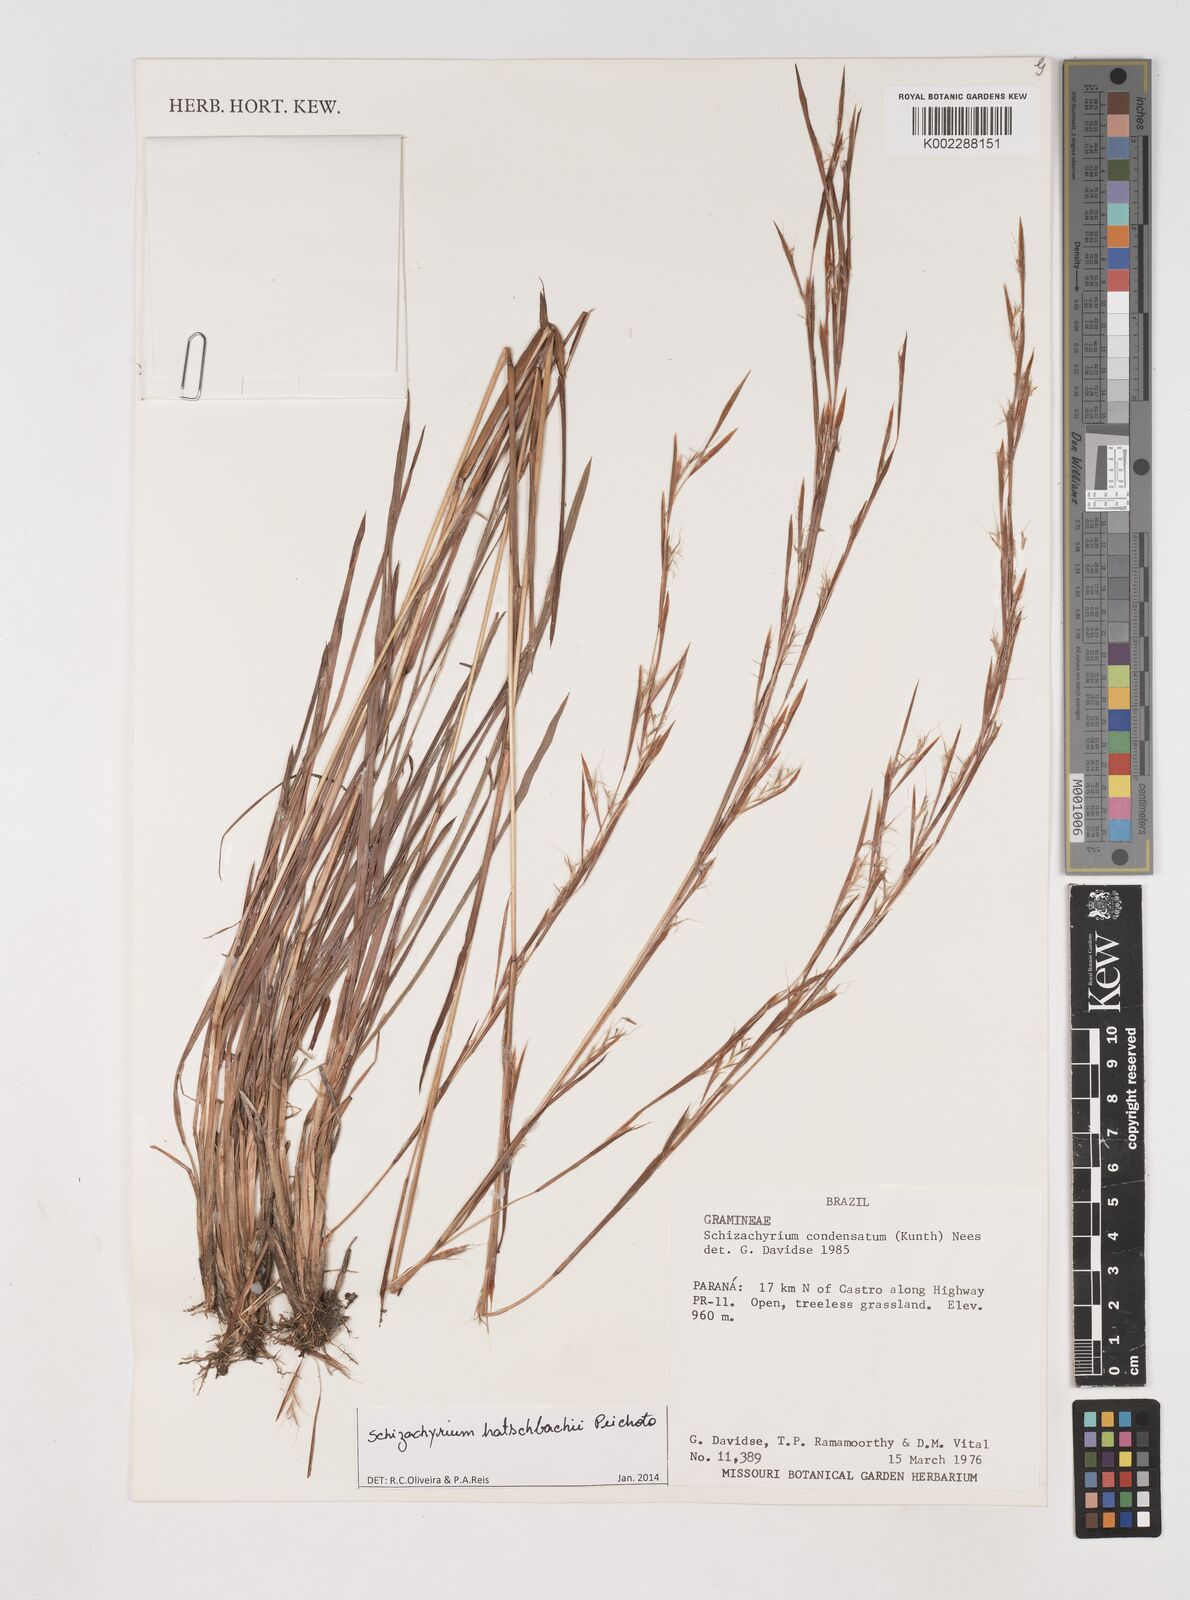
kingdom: Plantae
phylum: Tracheophyta
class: Liliopsida
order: Poales
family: Poaceae
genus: Schizachyrium
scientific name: Schizachyrium hatschbachii
